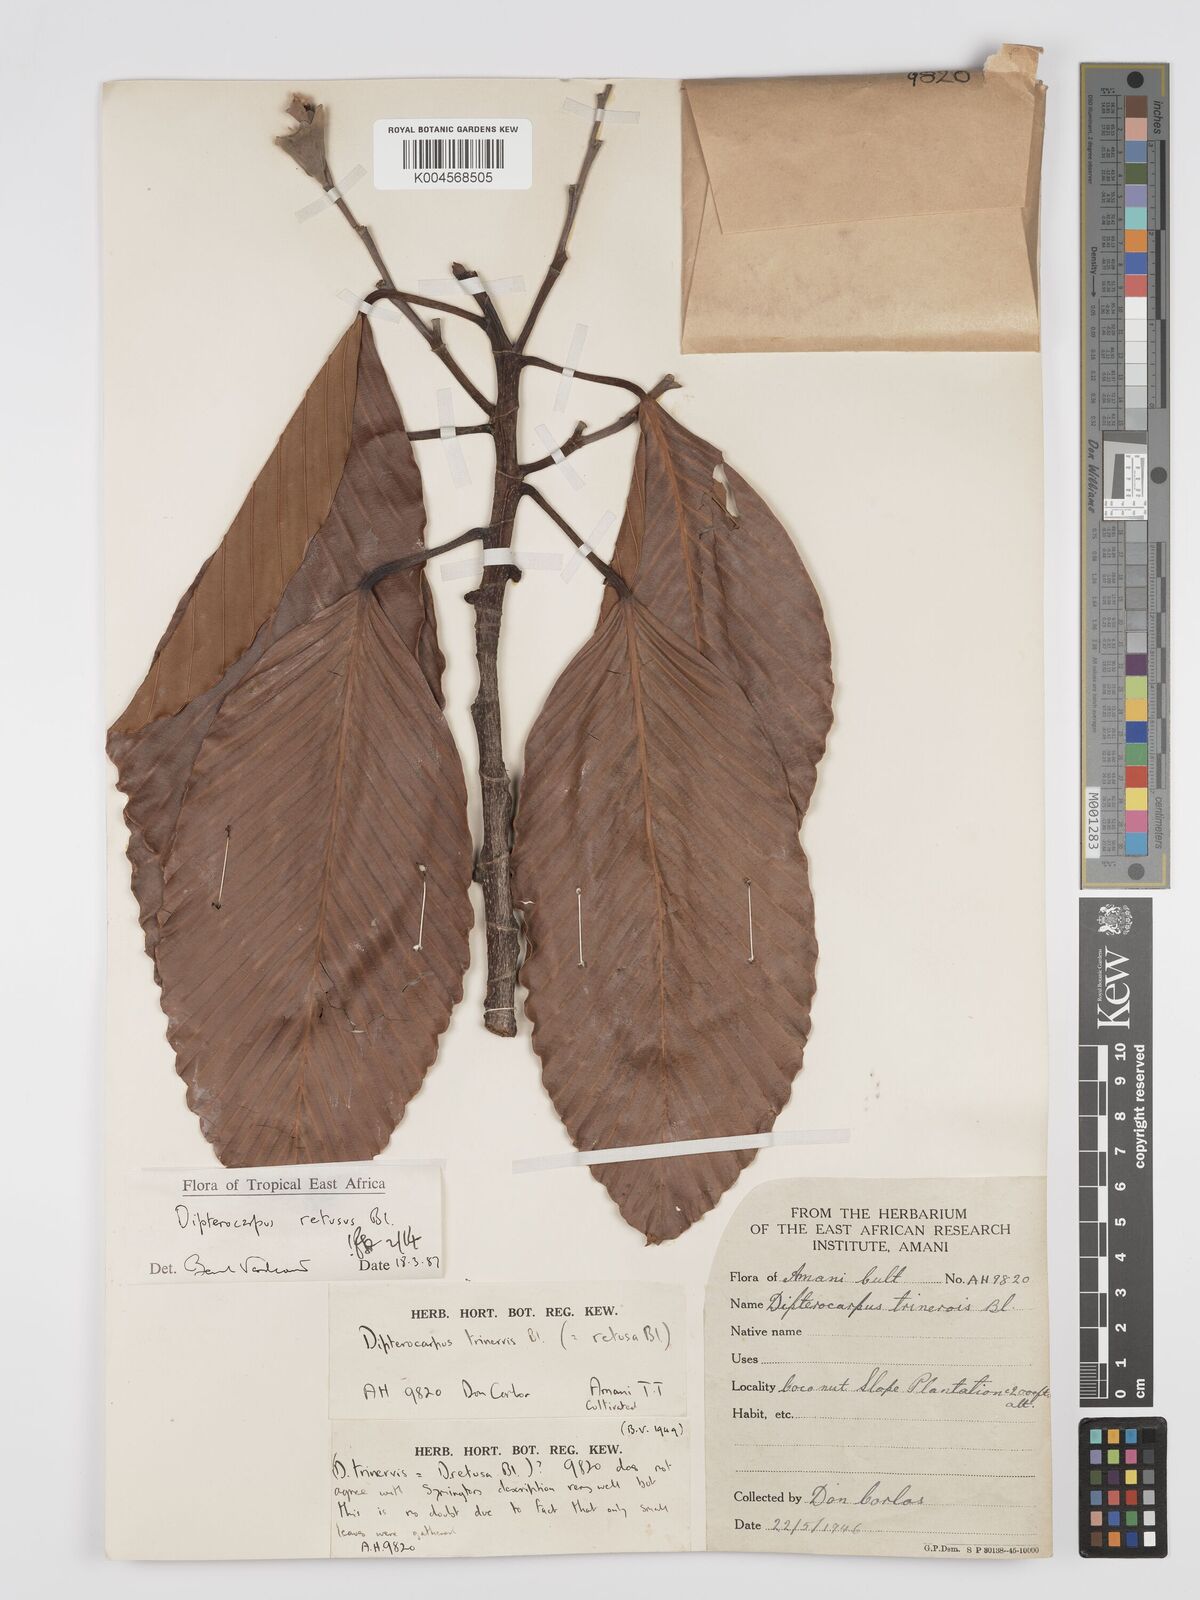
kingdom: Plantae
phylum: Tracheophyta
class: Magnoliopsida
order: Malvales
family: Dipterocarpaceae
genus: Dipterocarpus
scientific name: Dipterocarpus retusus
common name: Hollong
